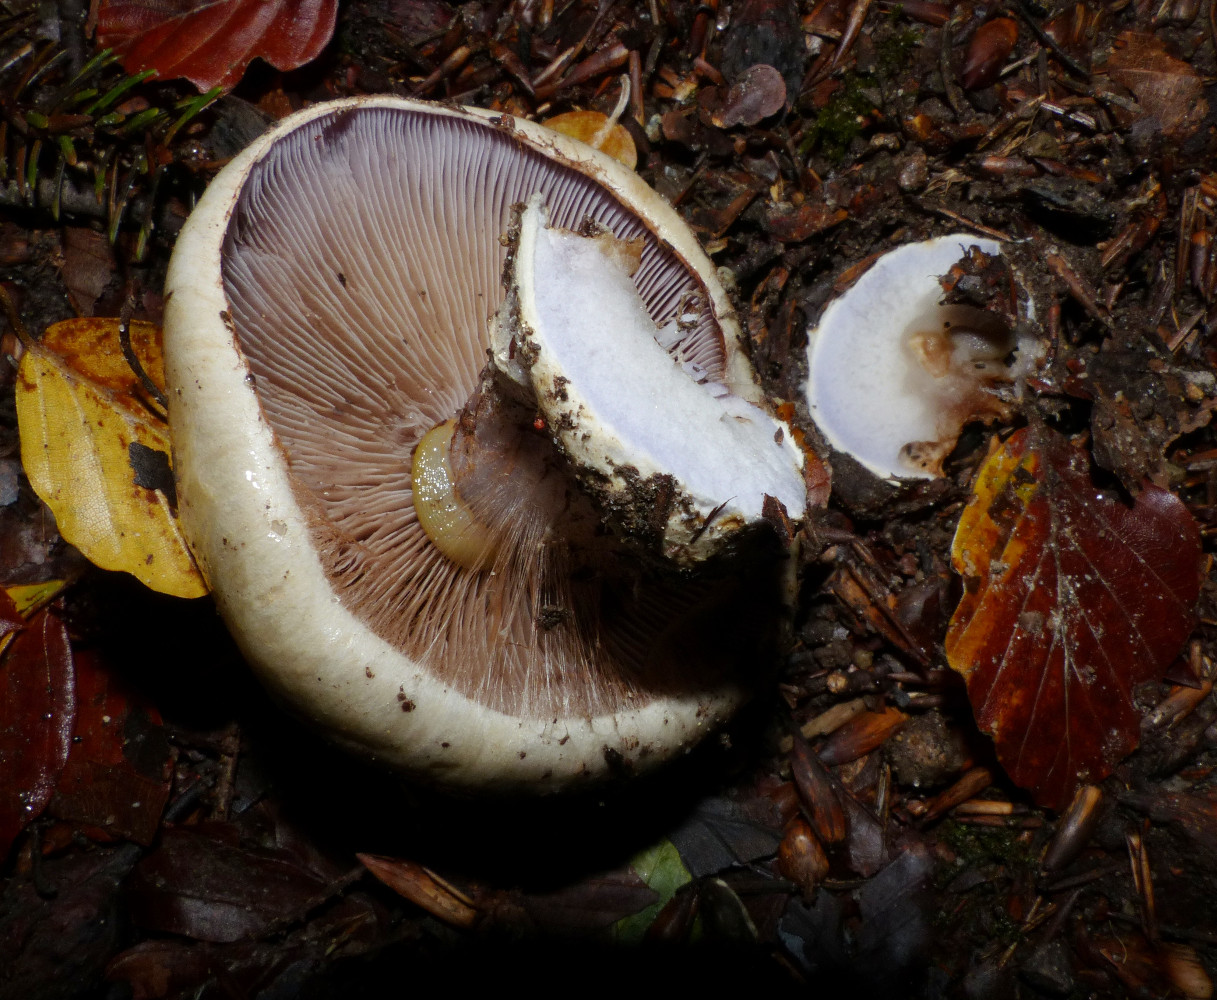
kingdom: Fungi
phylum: Basidiomycota
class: Agaricomycetes
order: Agaricales
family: Cortinariaceae
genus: Cortinarius
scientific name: Cortinarius anserinus
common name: bøge-slørhat
